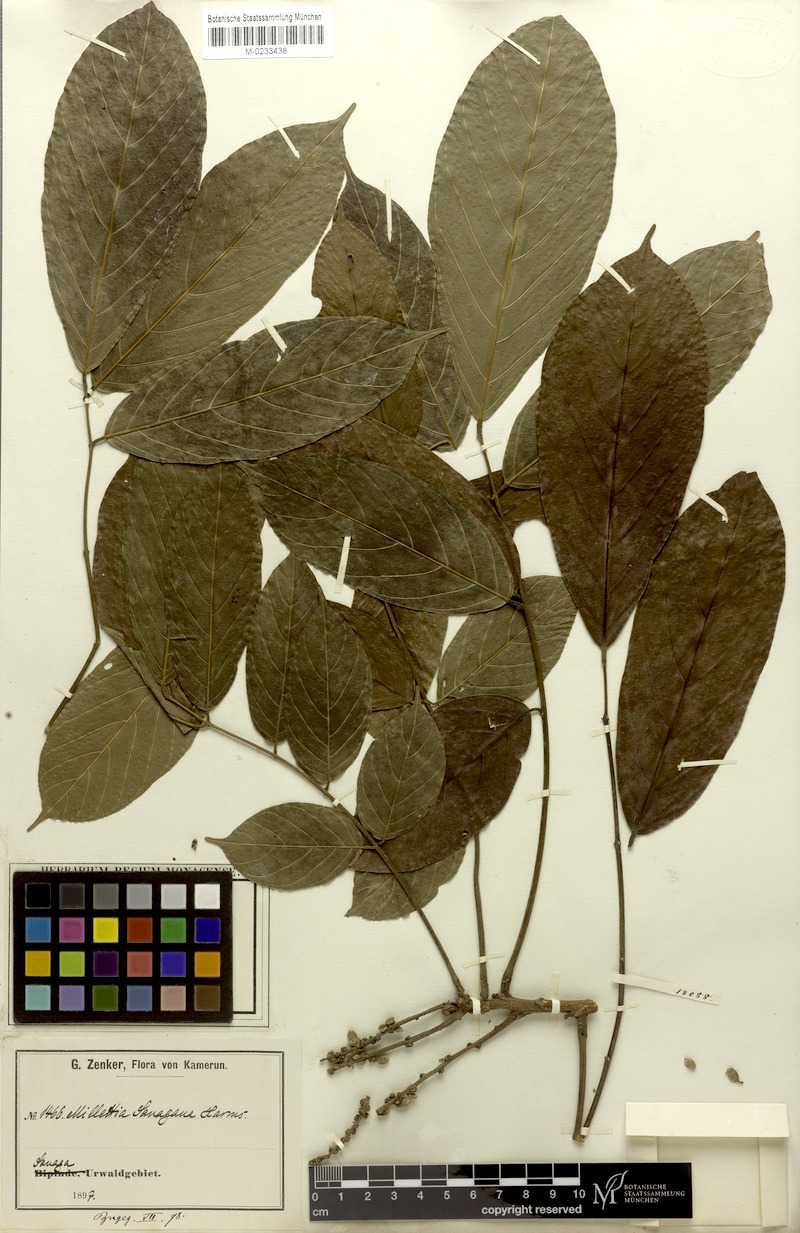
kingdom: Plantae
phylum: Tracheophyta
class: Magnoliopsida
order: Fabales
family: Fabaceae
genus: Millettia
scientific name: Millettia sanagana
